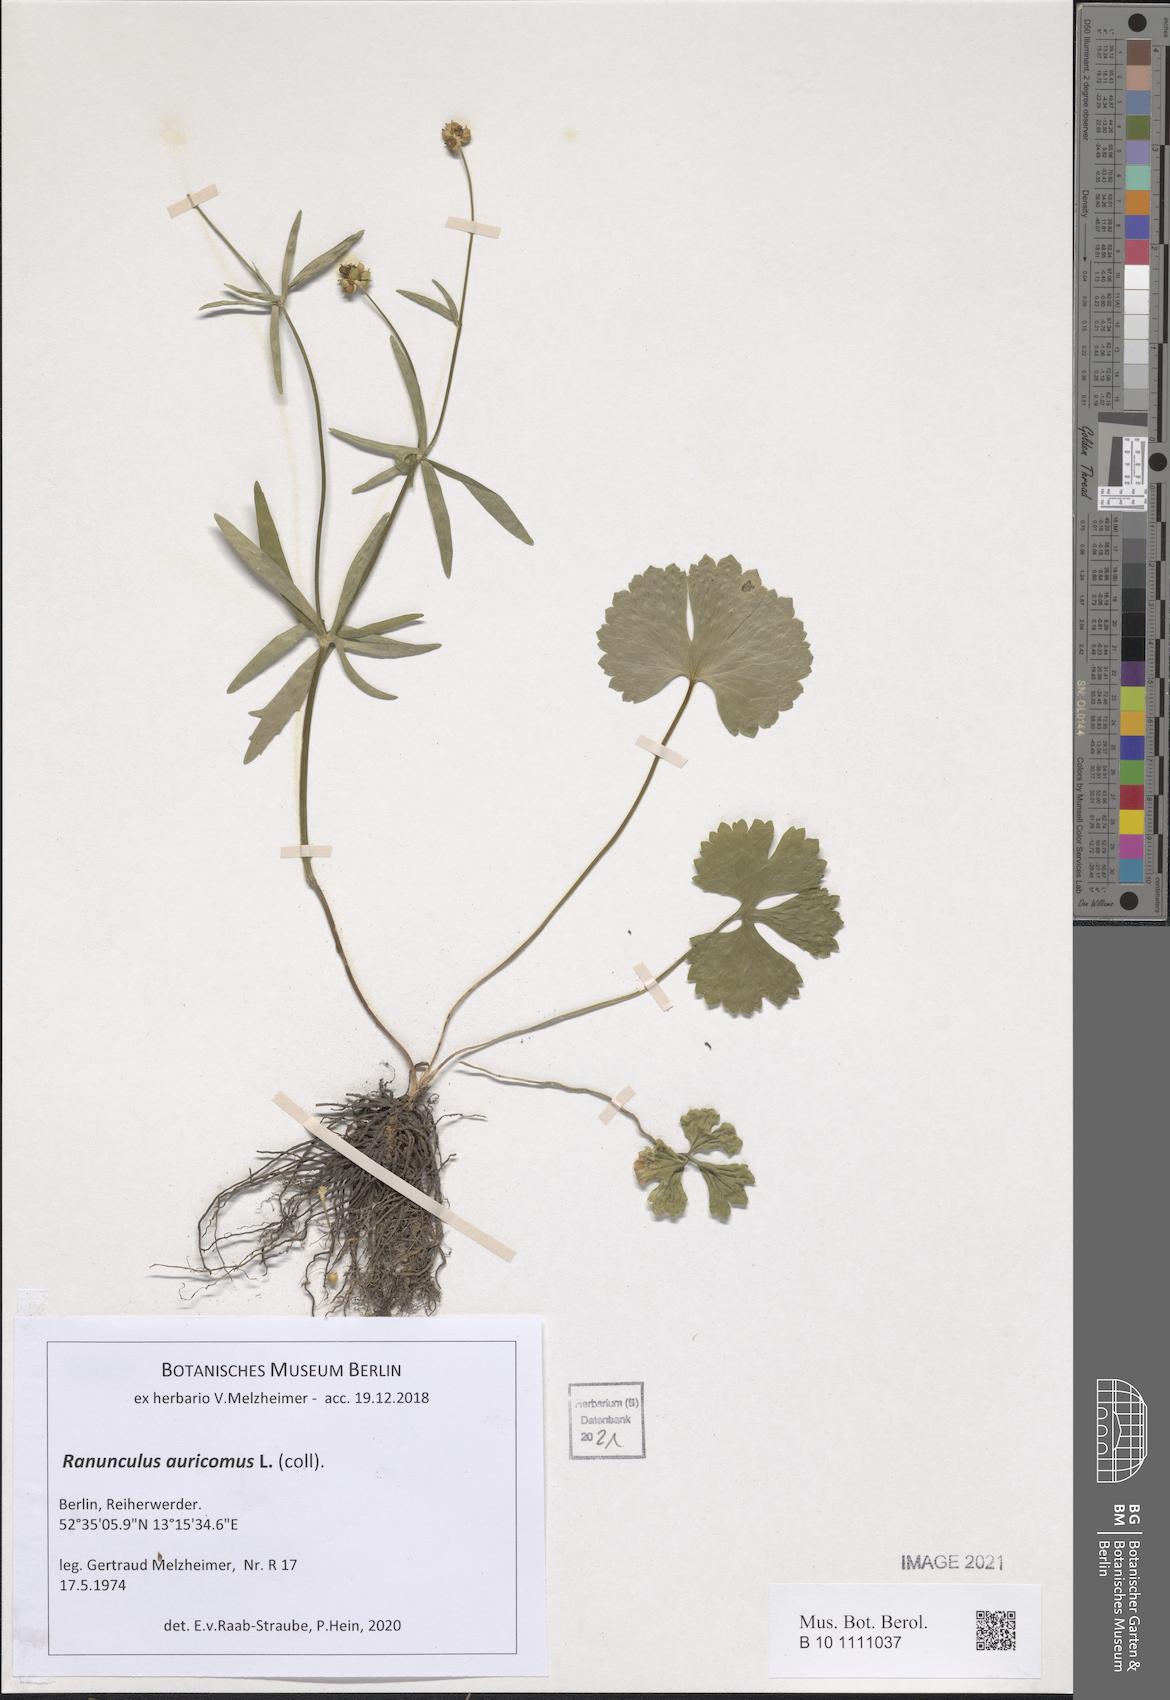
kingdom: Plantae
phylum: Tracheophyta
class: Magnoliopsida
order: Ranunculales
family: Ranunculaceae
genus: Ranunculus
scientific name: Ranunculus auricomus
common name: Goldilocks buttercup
